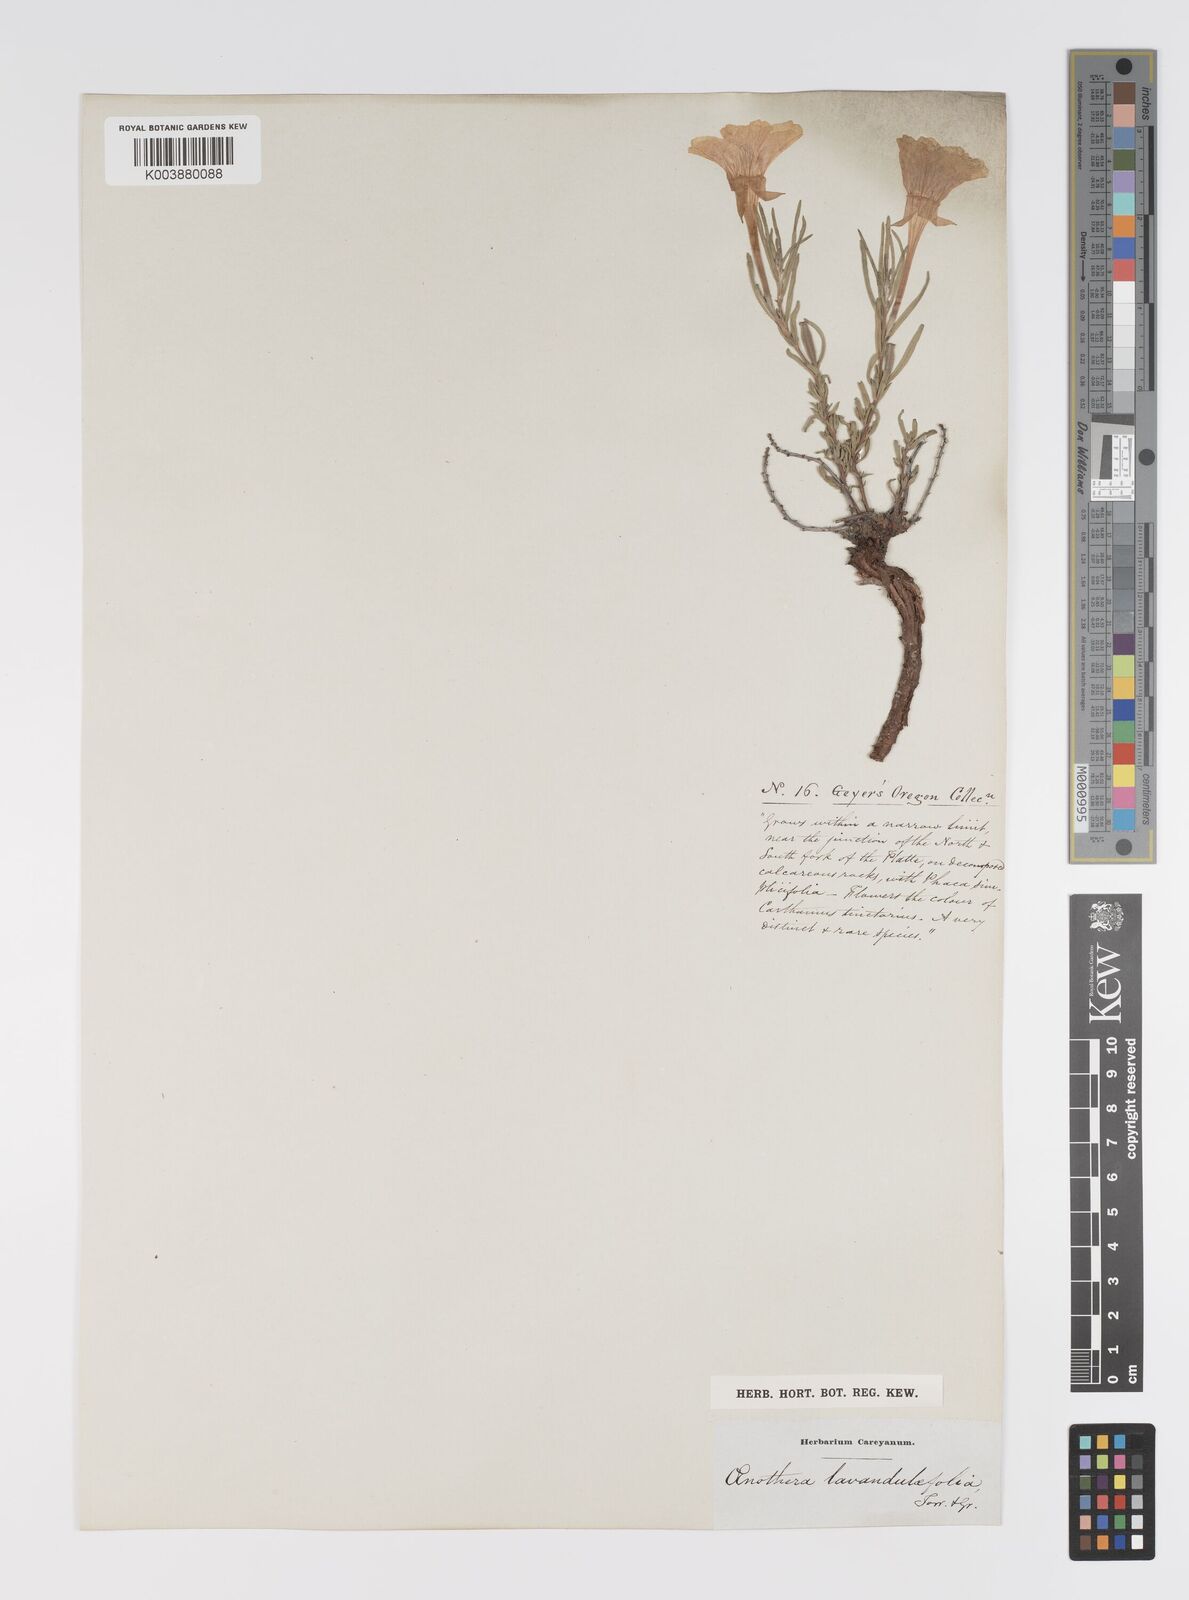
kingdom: Plantae
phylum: Tracheophyta
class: Magnoliopsida
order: Myrtales
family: Onagraceae
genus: Oenothera
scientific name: Oenothera lavandulifolia
